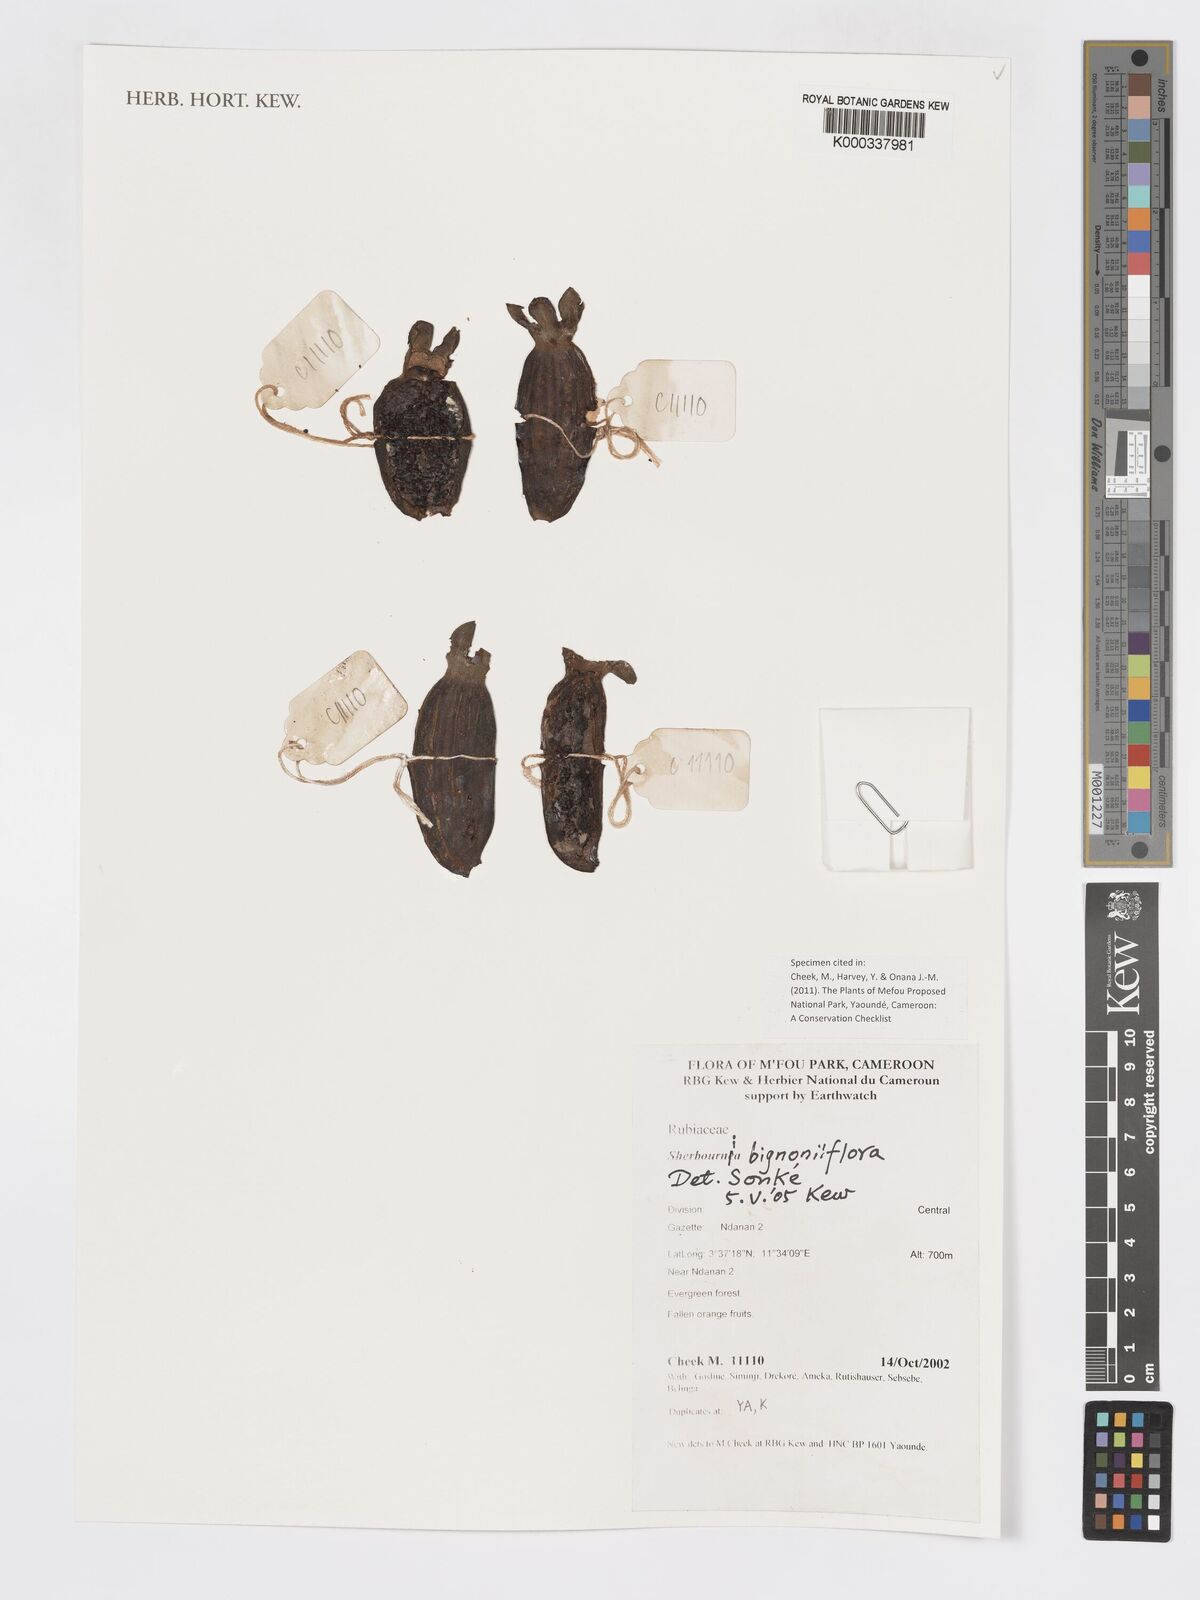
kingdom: Plantae
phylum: Tracheophyta
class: Magnoliopsida
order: Gentianales
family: Rubiaceae
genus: Sherbournia
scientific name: Sherbournia bignoniiflora
